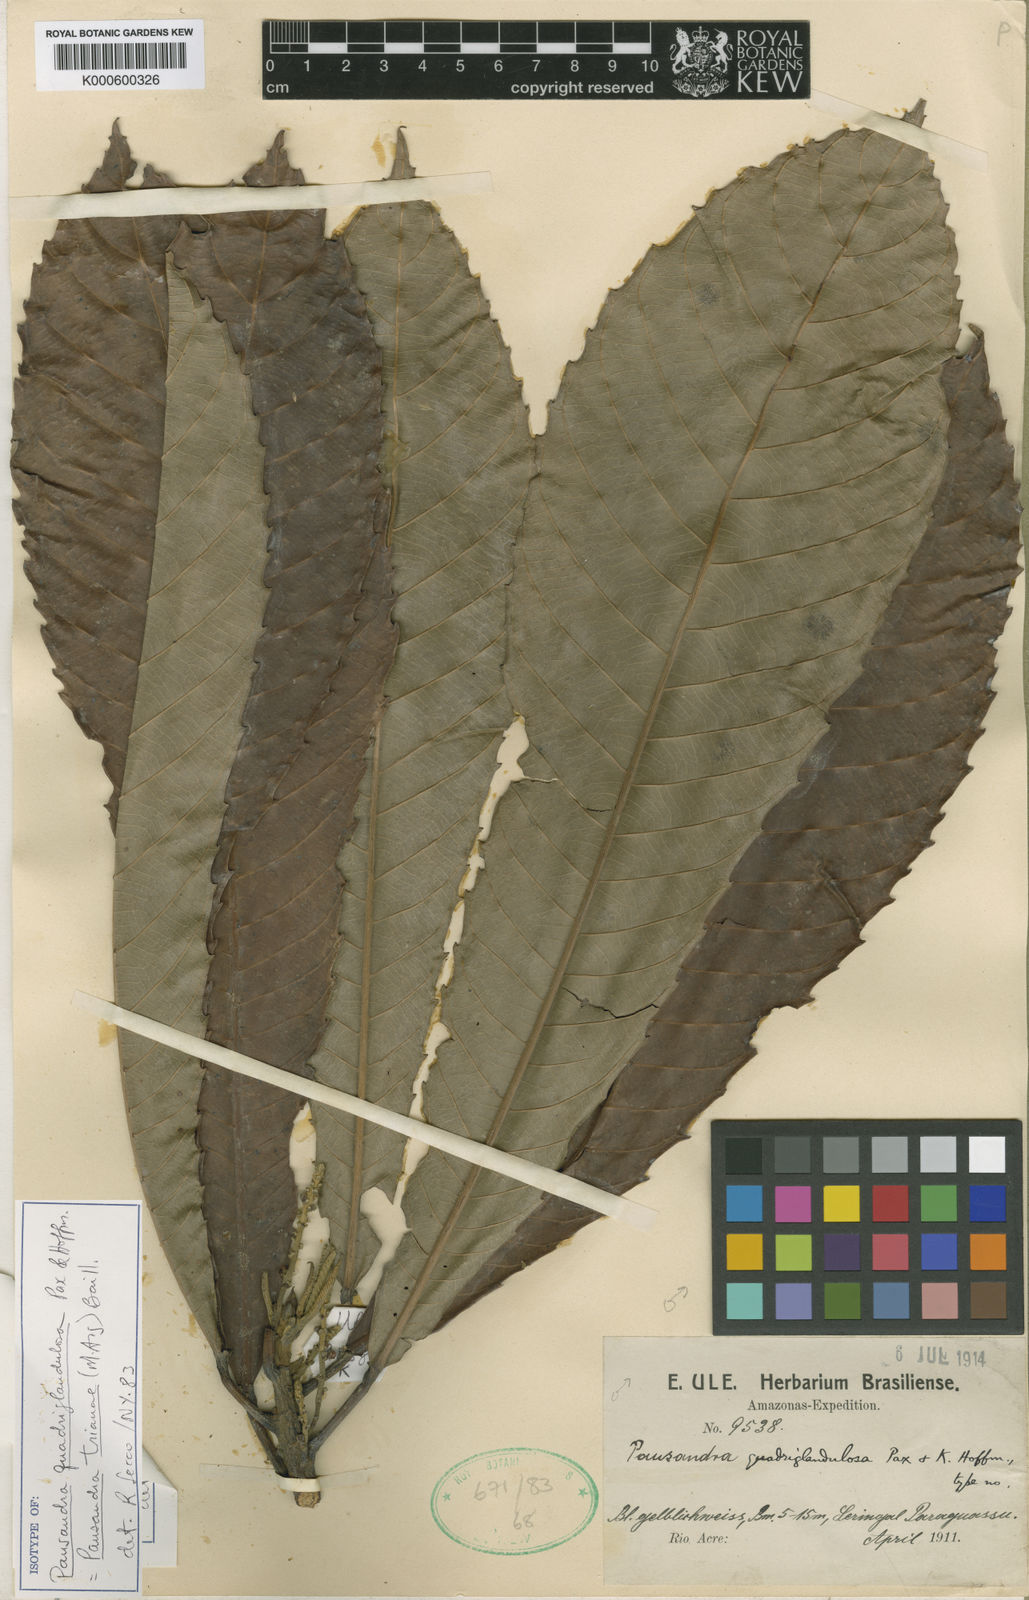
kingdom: Plantae
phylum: Tracheophyta
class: Magnoliopsida
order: Malpighiales
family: Euphorbiaceae
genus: Pausandra
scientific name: Pausandra
